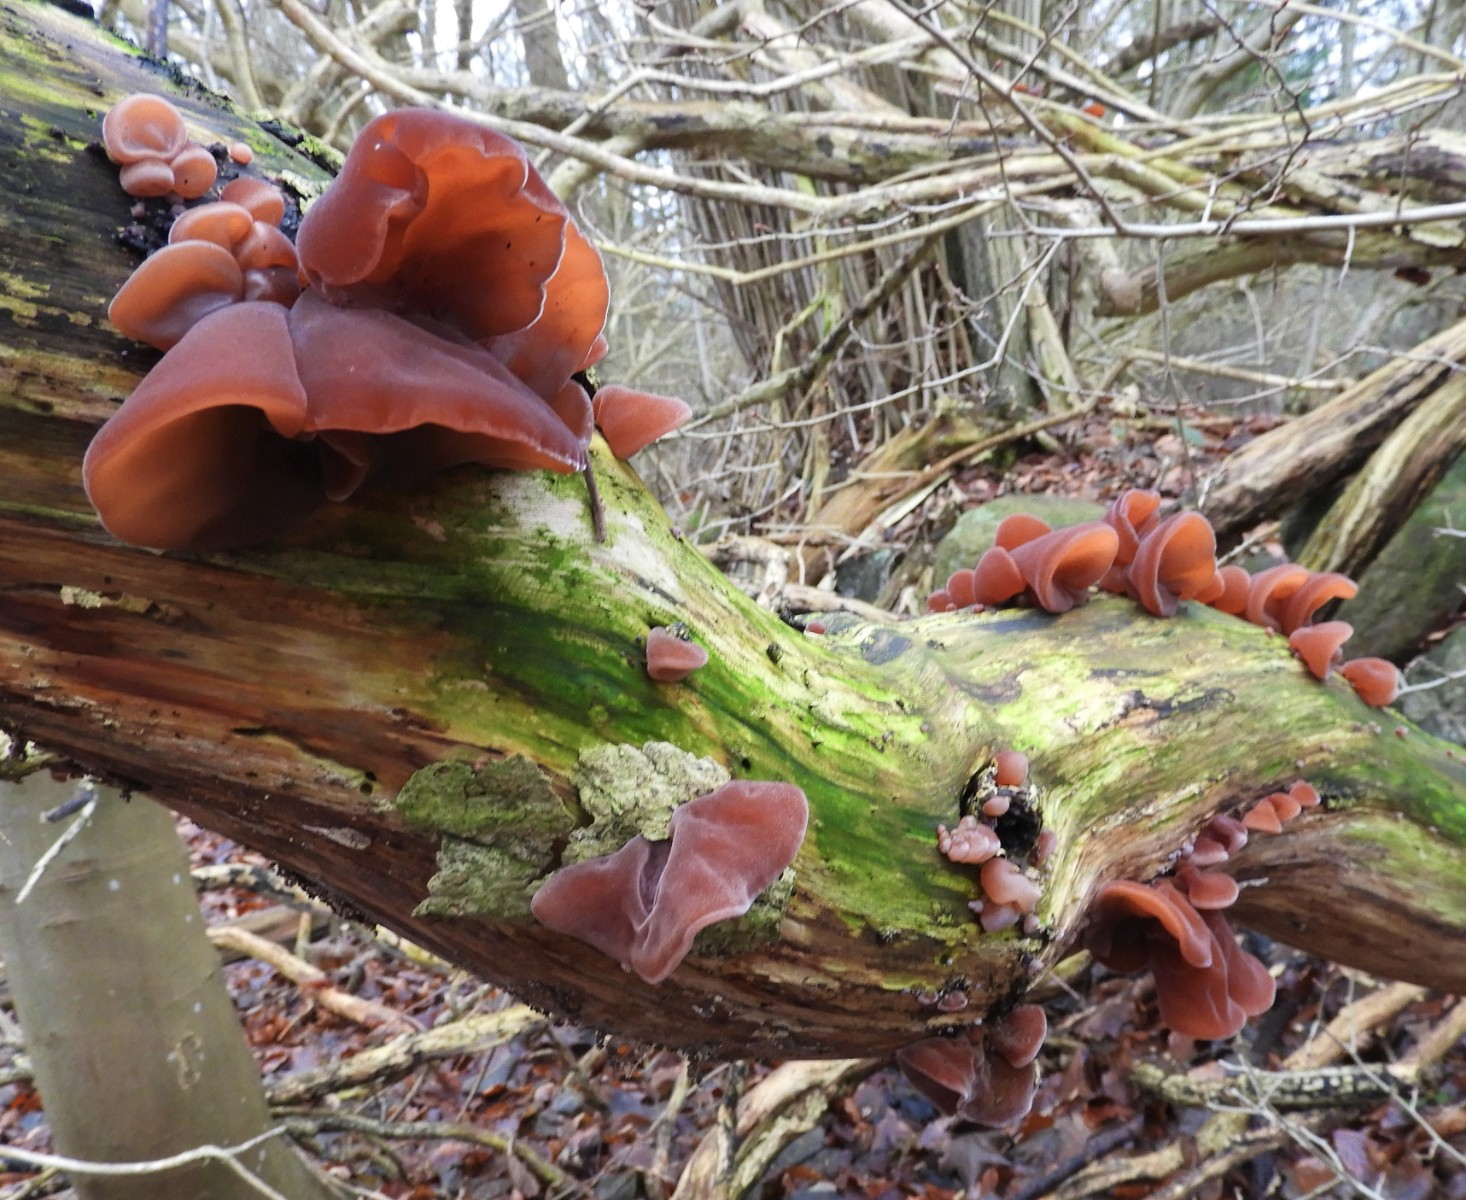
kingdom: Fungi
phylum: Basidiomycota
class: Agaricomycetes
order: Auriculariales
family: Auriculariaceae
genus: Auricularia
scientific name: Auricularia auricula-judae
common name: almindelig judasøre
